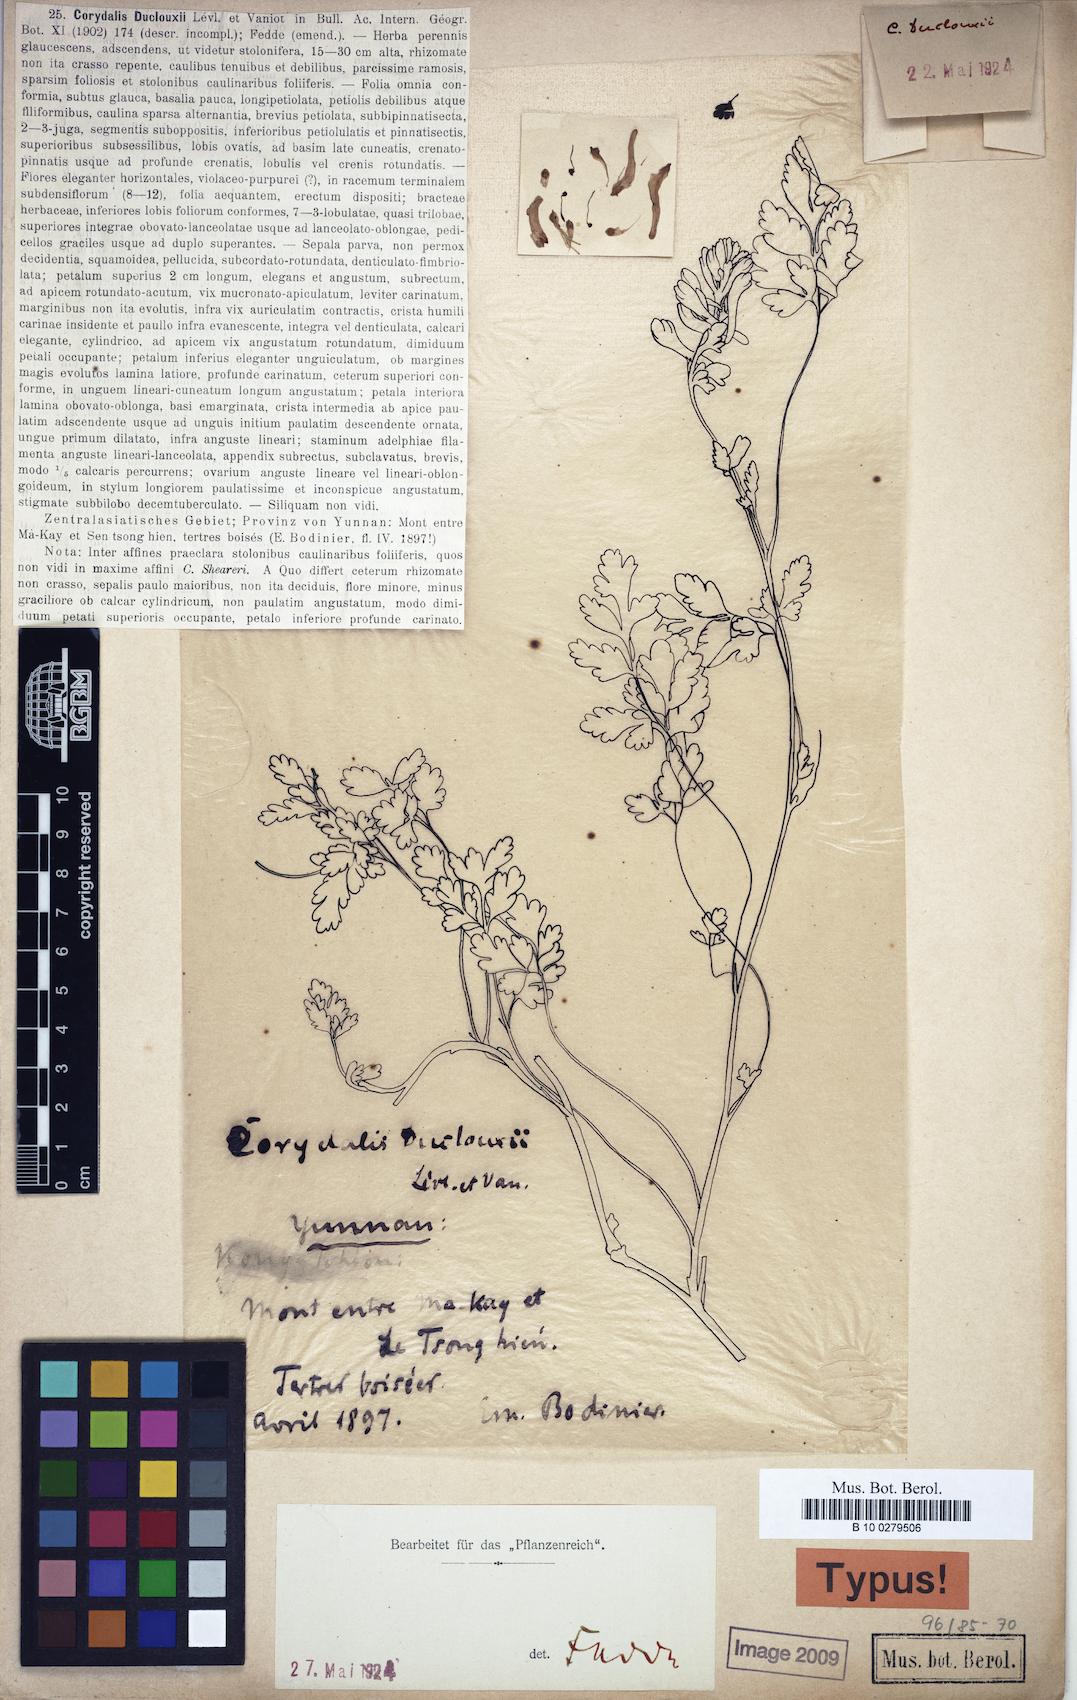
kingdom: Plantae
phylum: Tracheophyta
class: Magnoliopsida
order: Ranunculales
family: Papaveraceae
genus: Corydalis
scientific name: Corydalis duclouxii
